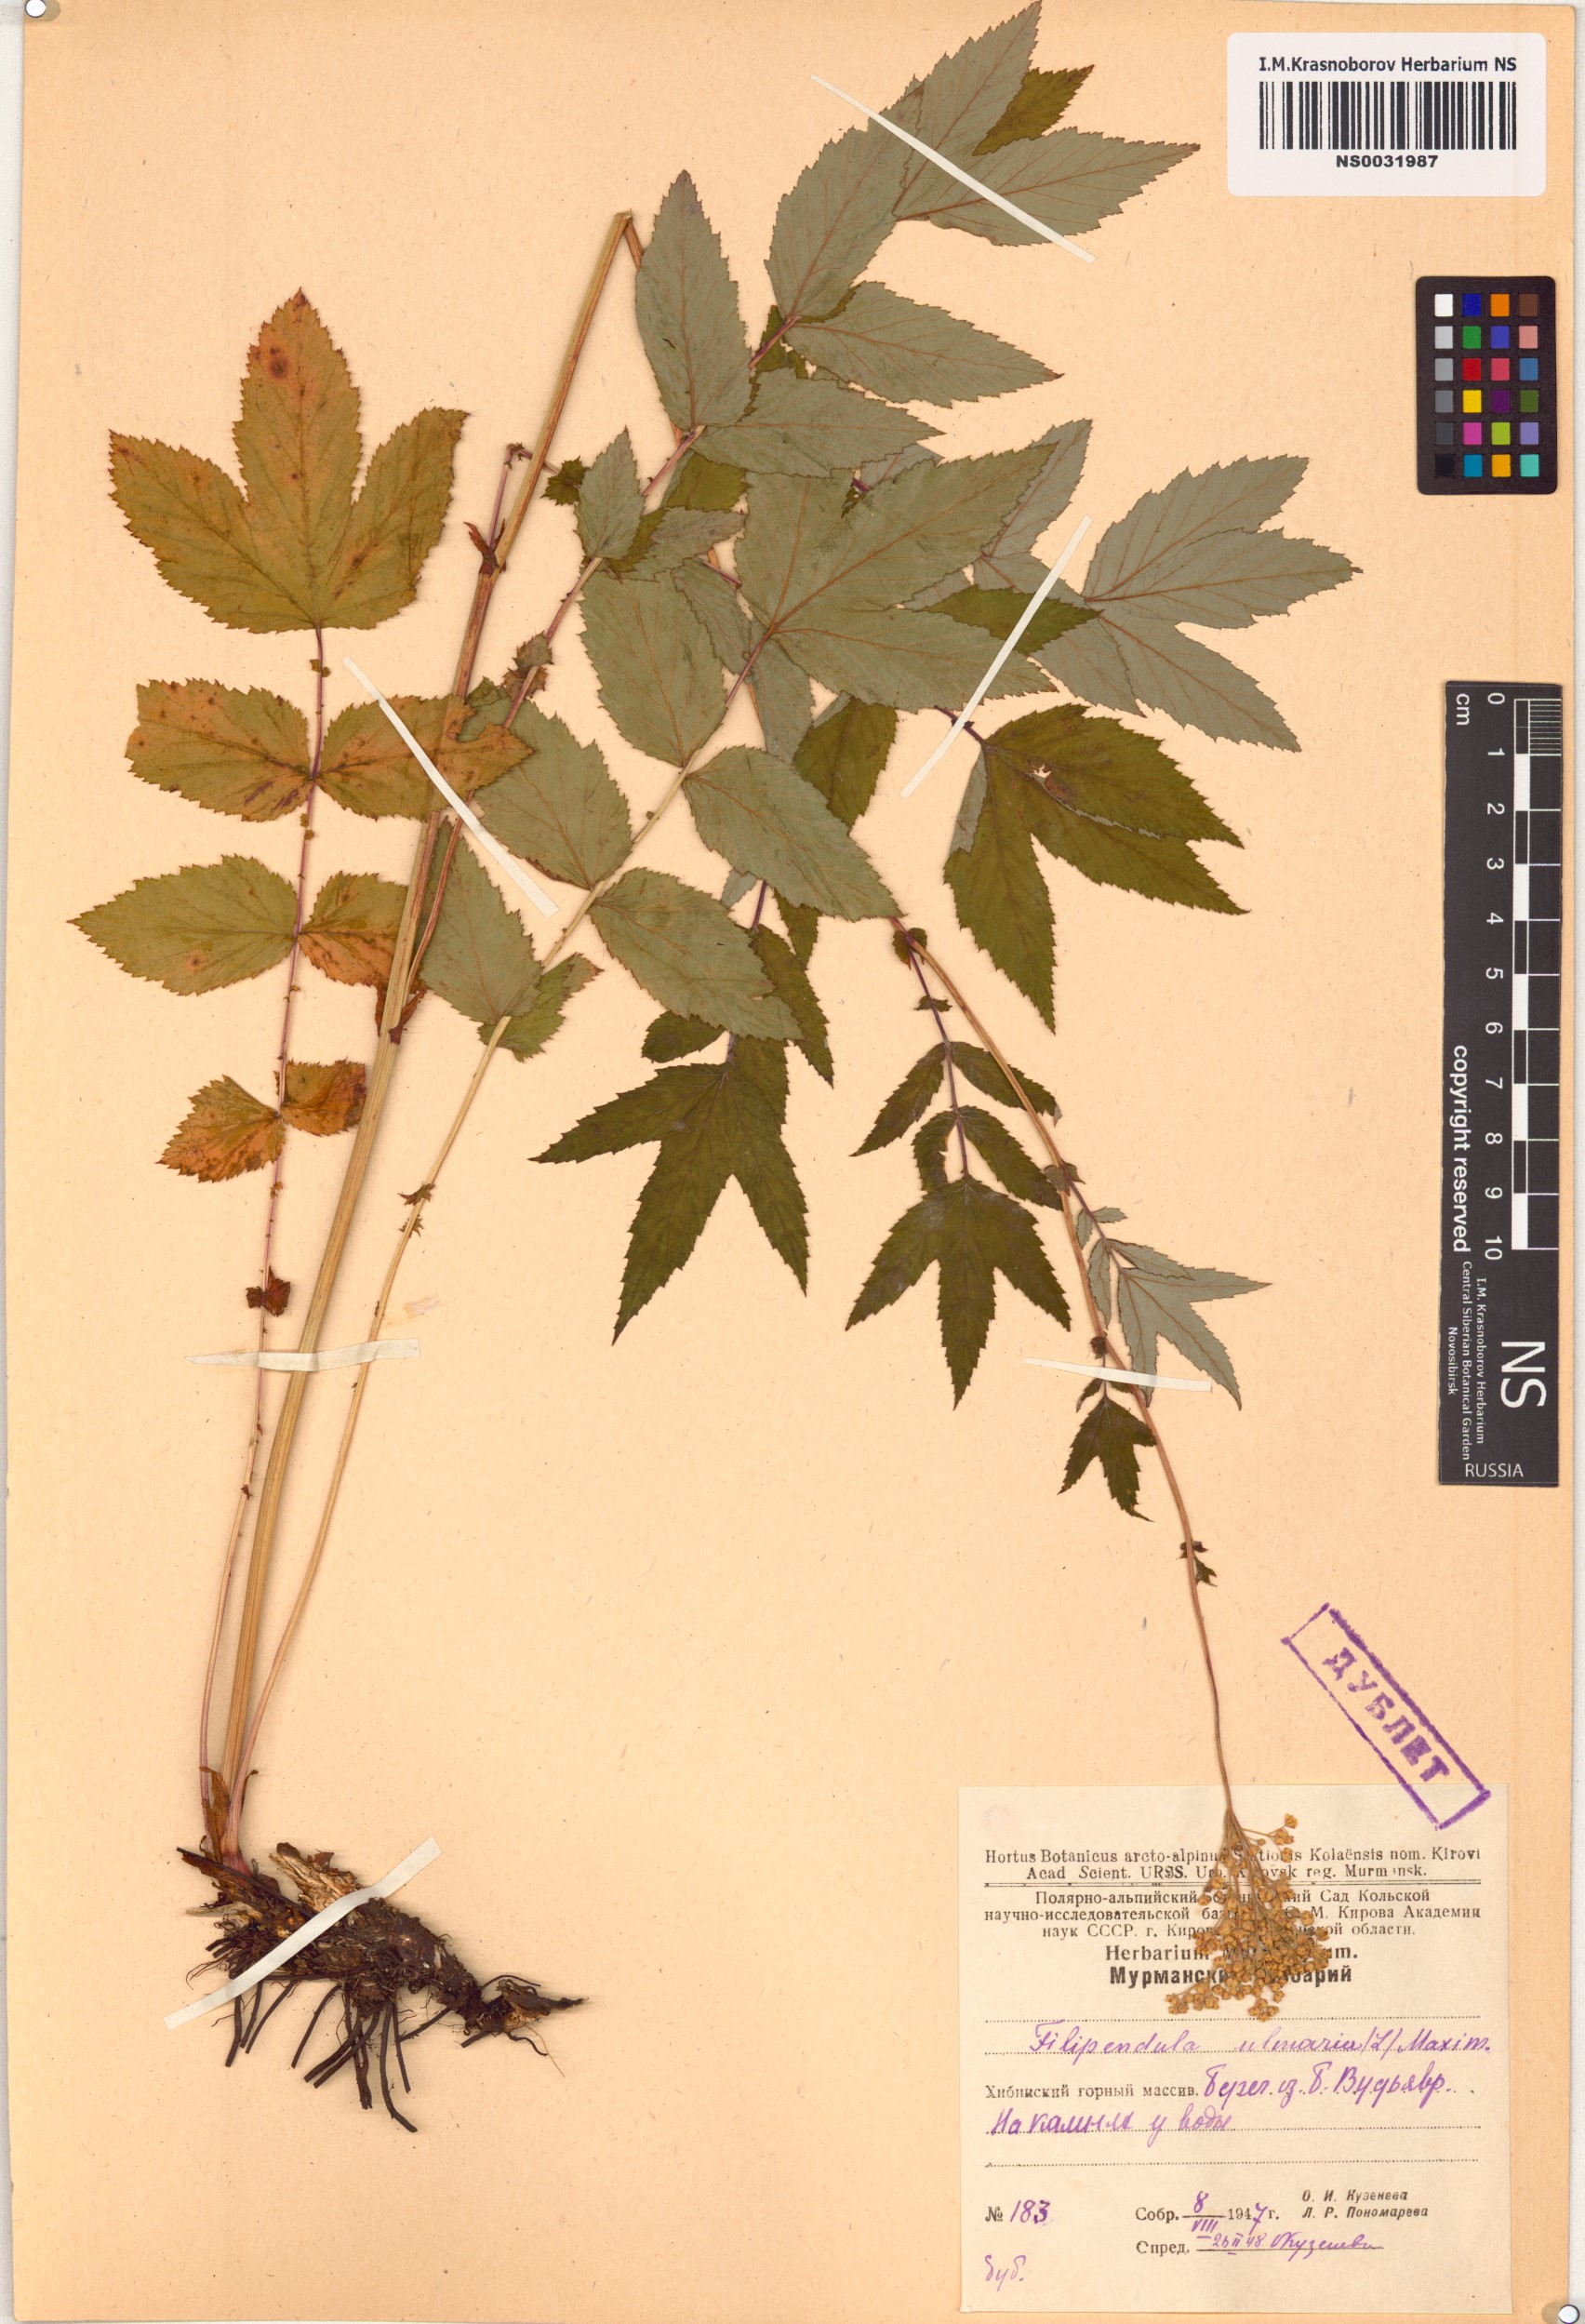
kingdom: Plantae
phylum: Tracheophyta
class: Magnoliopsida
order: Rosales
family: Rosaceae
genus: Filipendula
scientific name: Filipendula ulmaria
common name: Meadowsweet
